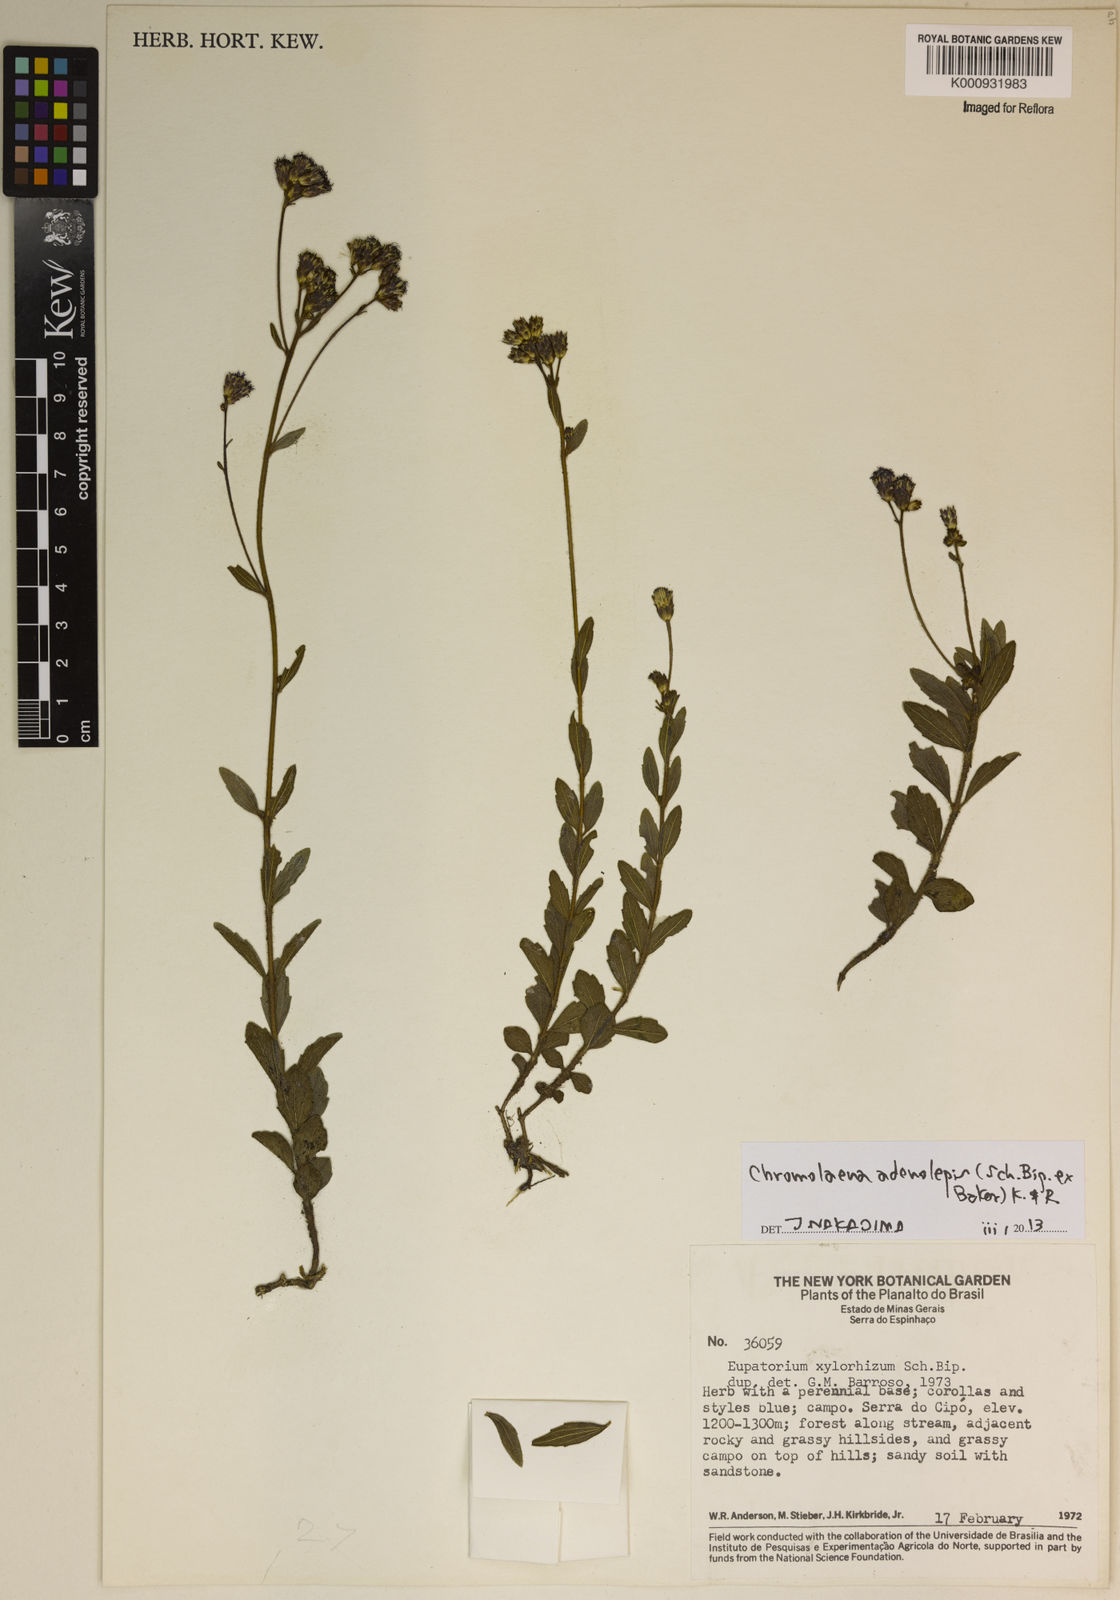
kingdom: Plantae
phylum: Tracheophyta
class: Magnoliopsida
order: Asterales
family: Asteraceae
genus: Chromolaena
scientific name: Chromolaena adenolepis
